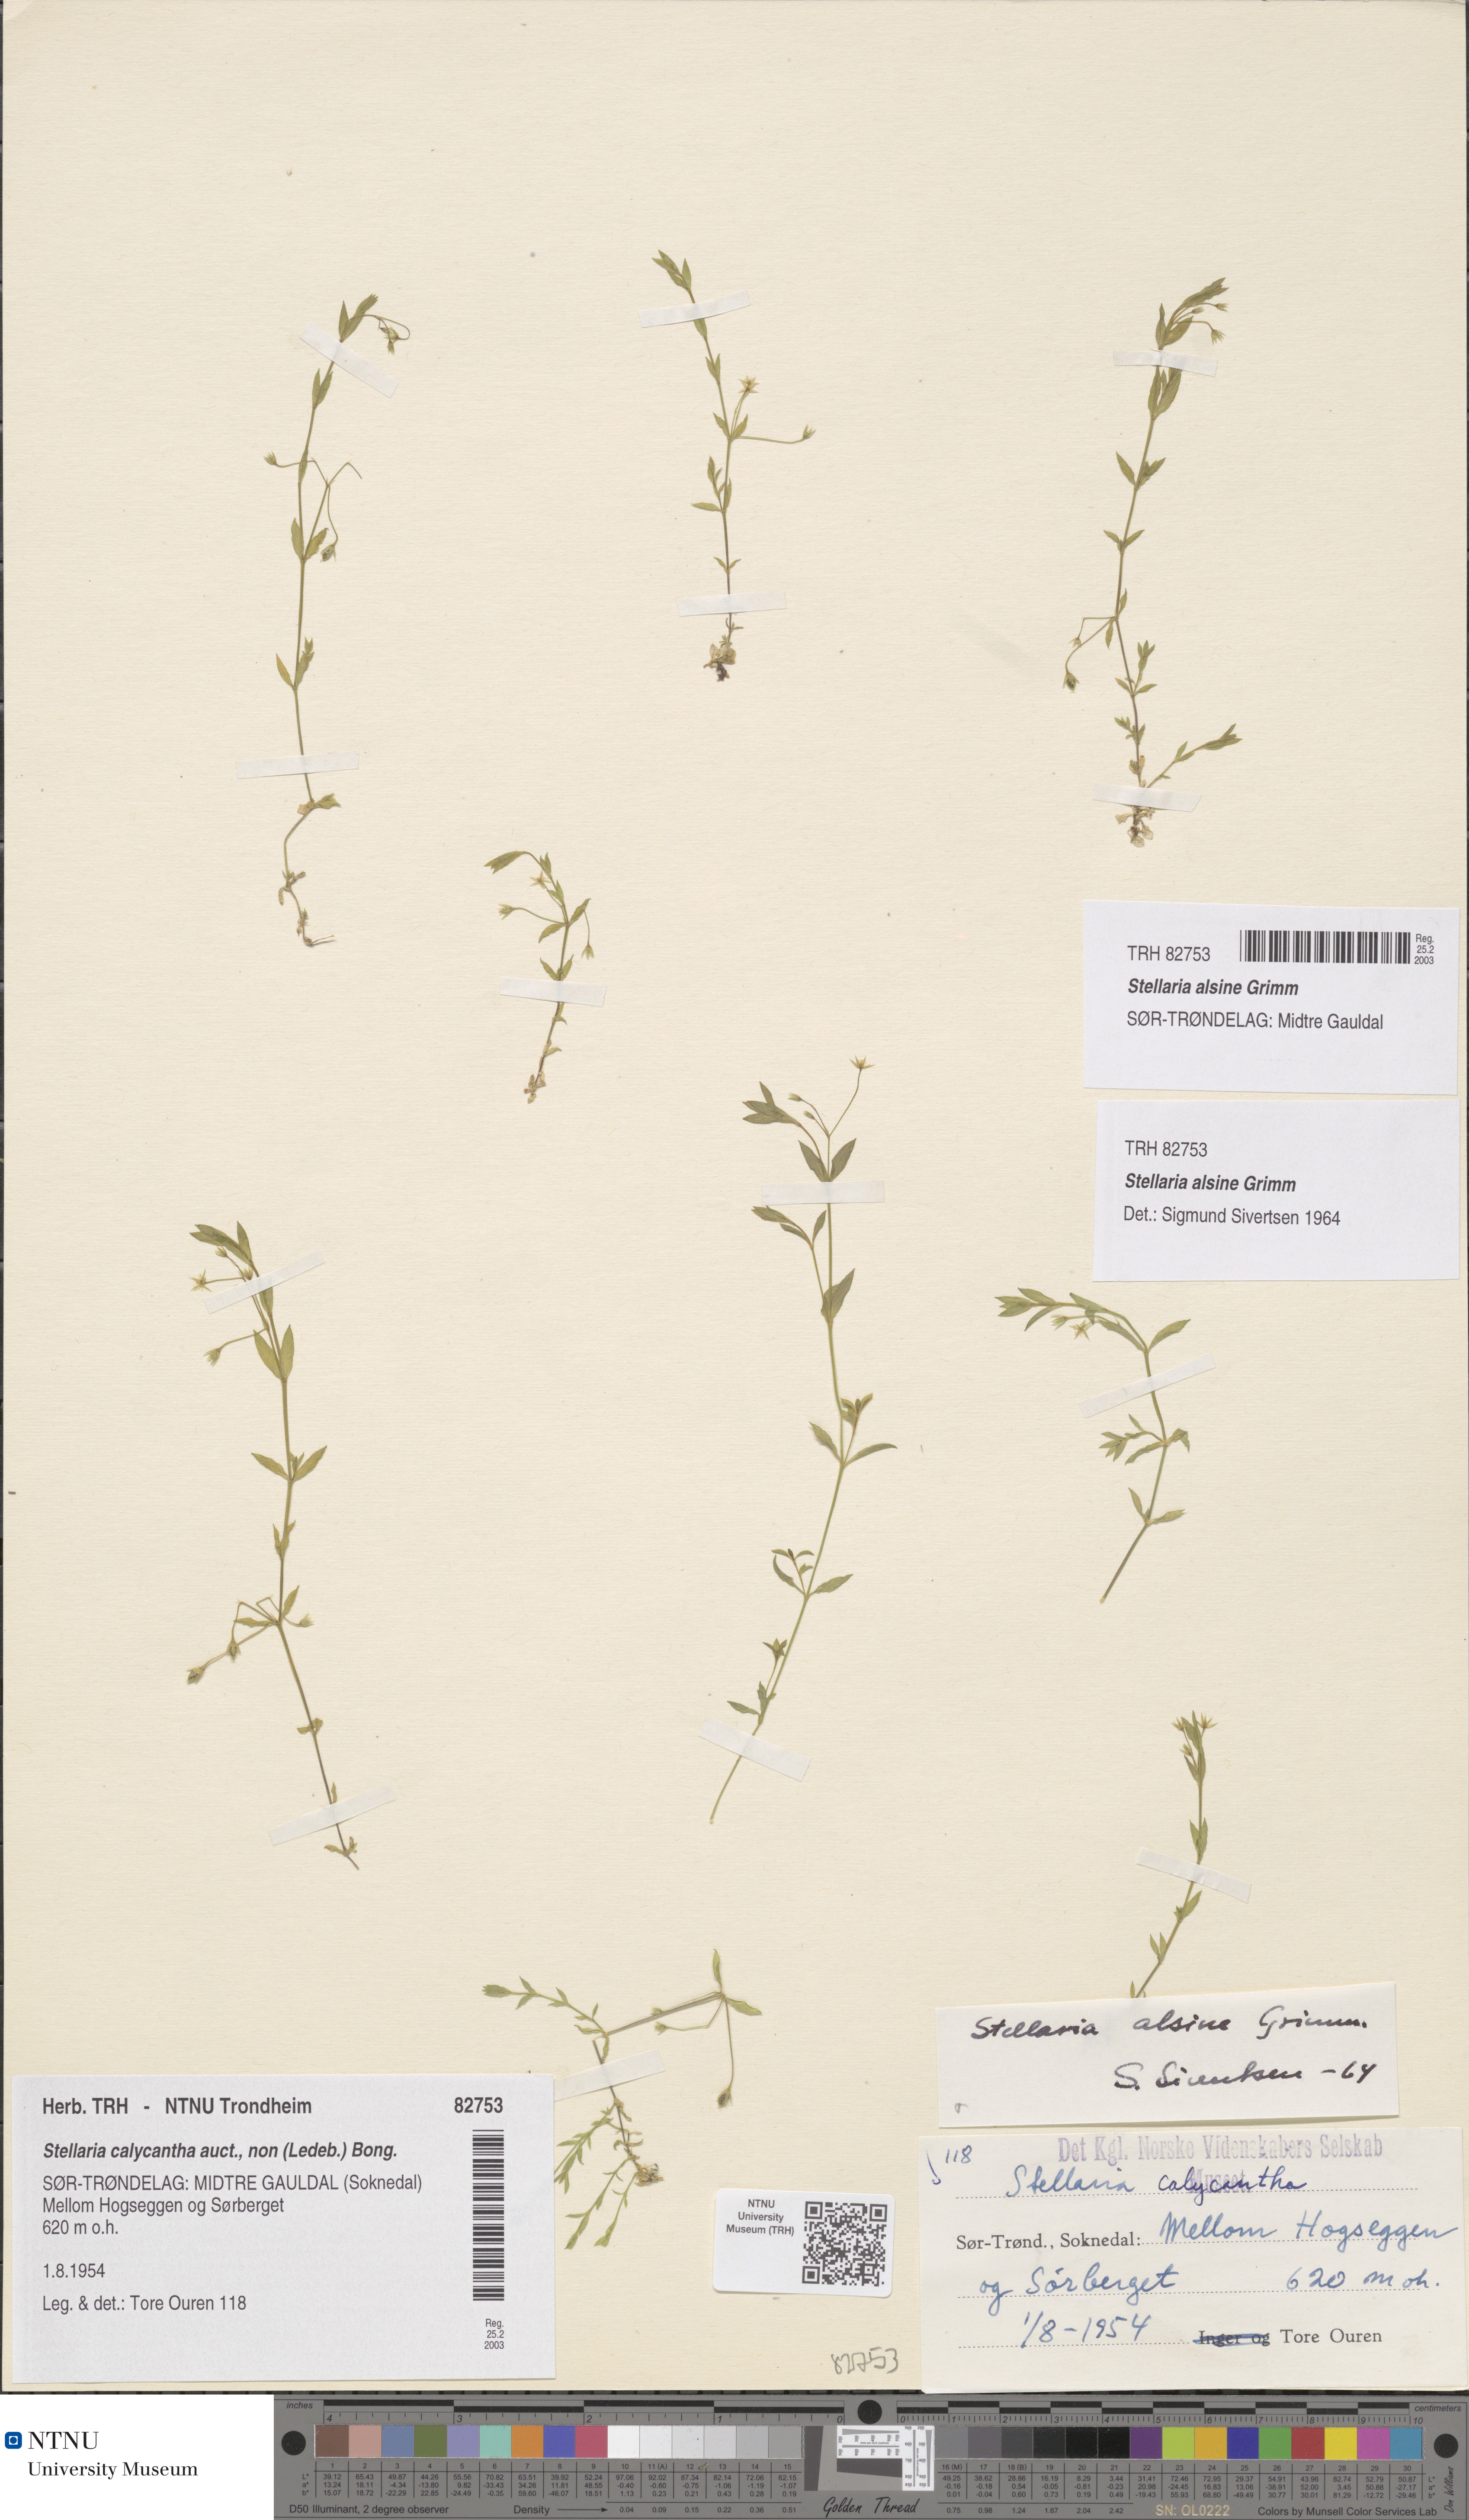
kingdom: Plantae
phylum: Tracheophyta
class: Magnoliopsida
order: Caryophyllales
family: Caryophyllaceae
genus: Stellaria
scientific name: Stellaria alsine
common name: Bog stitchwort
